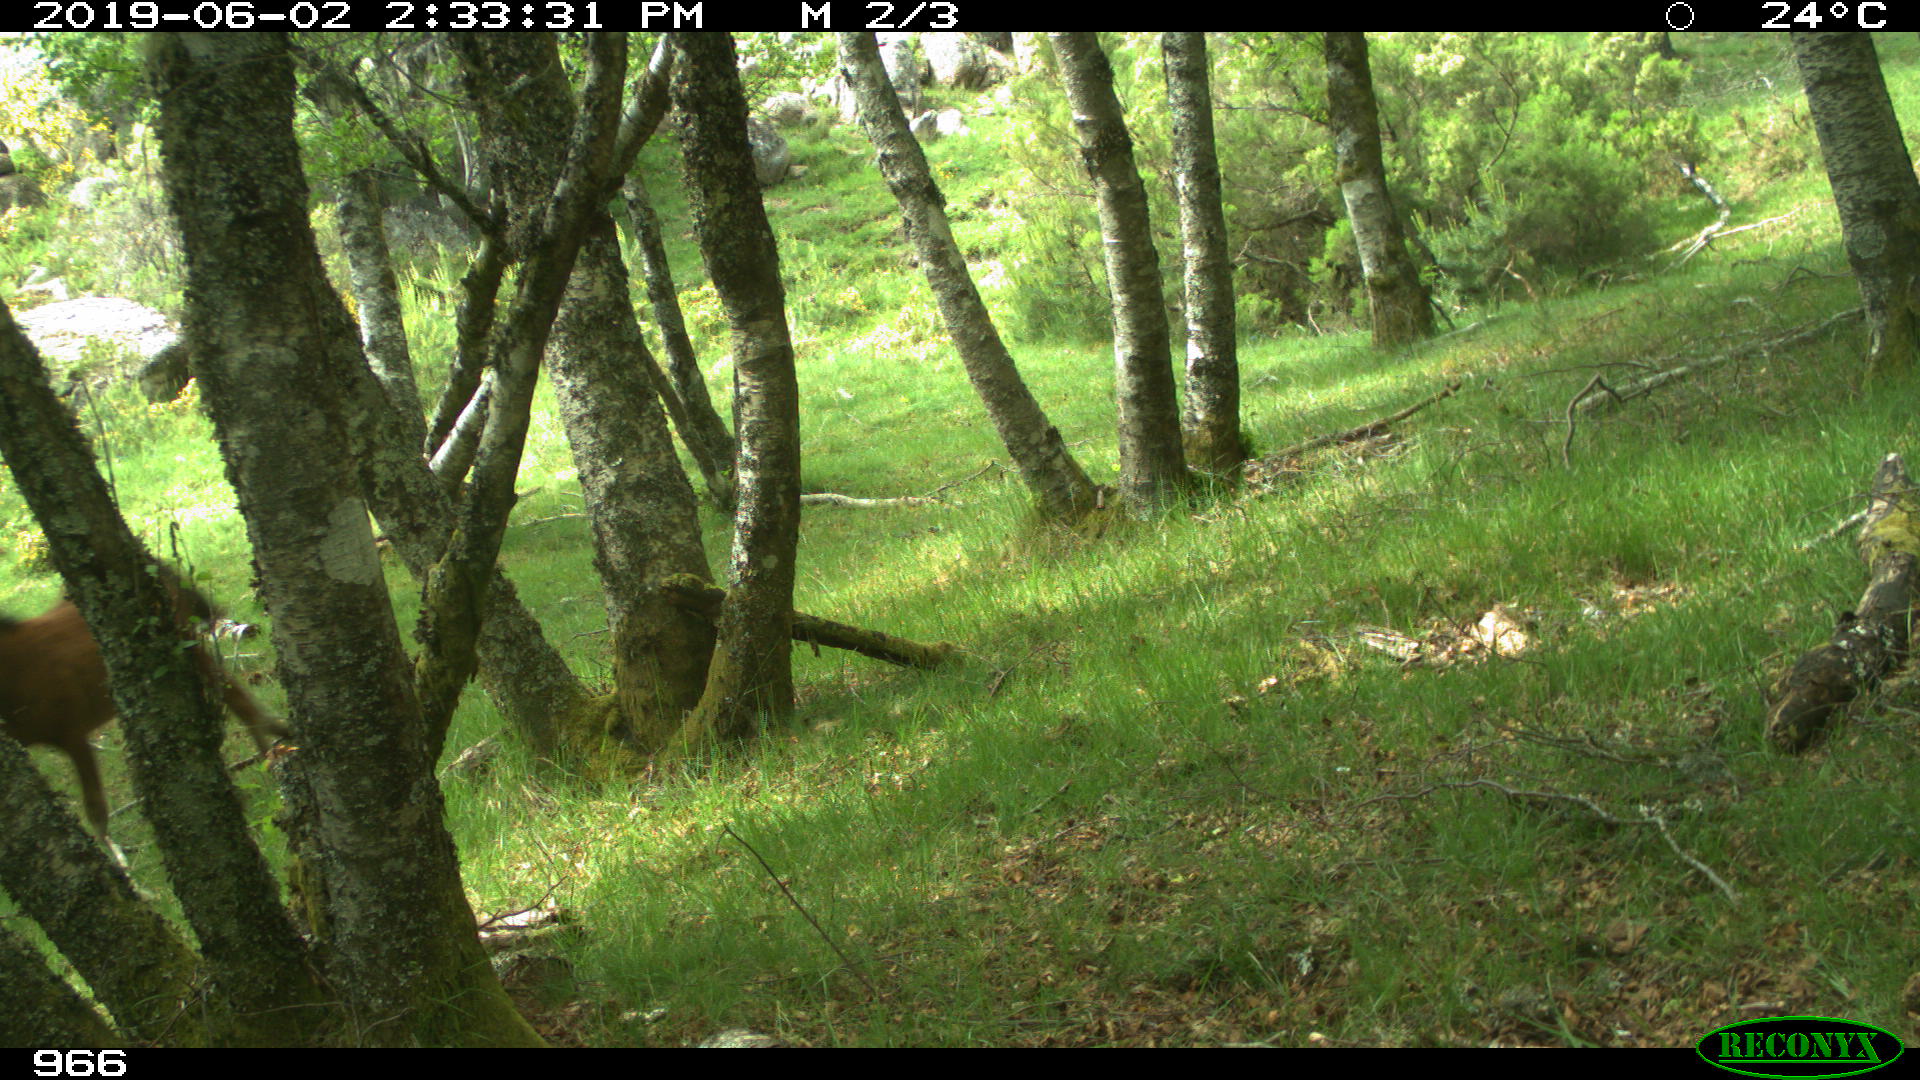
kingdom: Animalia
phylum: Chordata
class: Mammalia
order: Perissodactyla
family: Equidae
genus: Equus
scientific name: Equus caballus
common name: Horse
